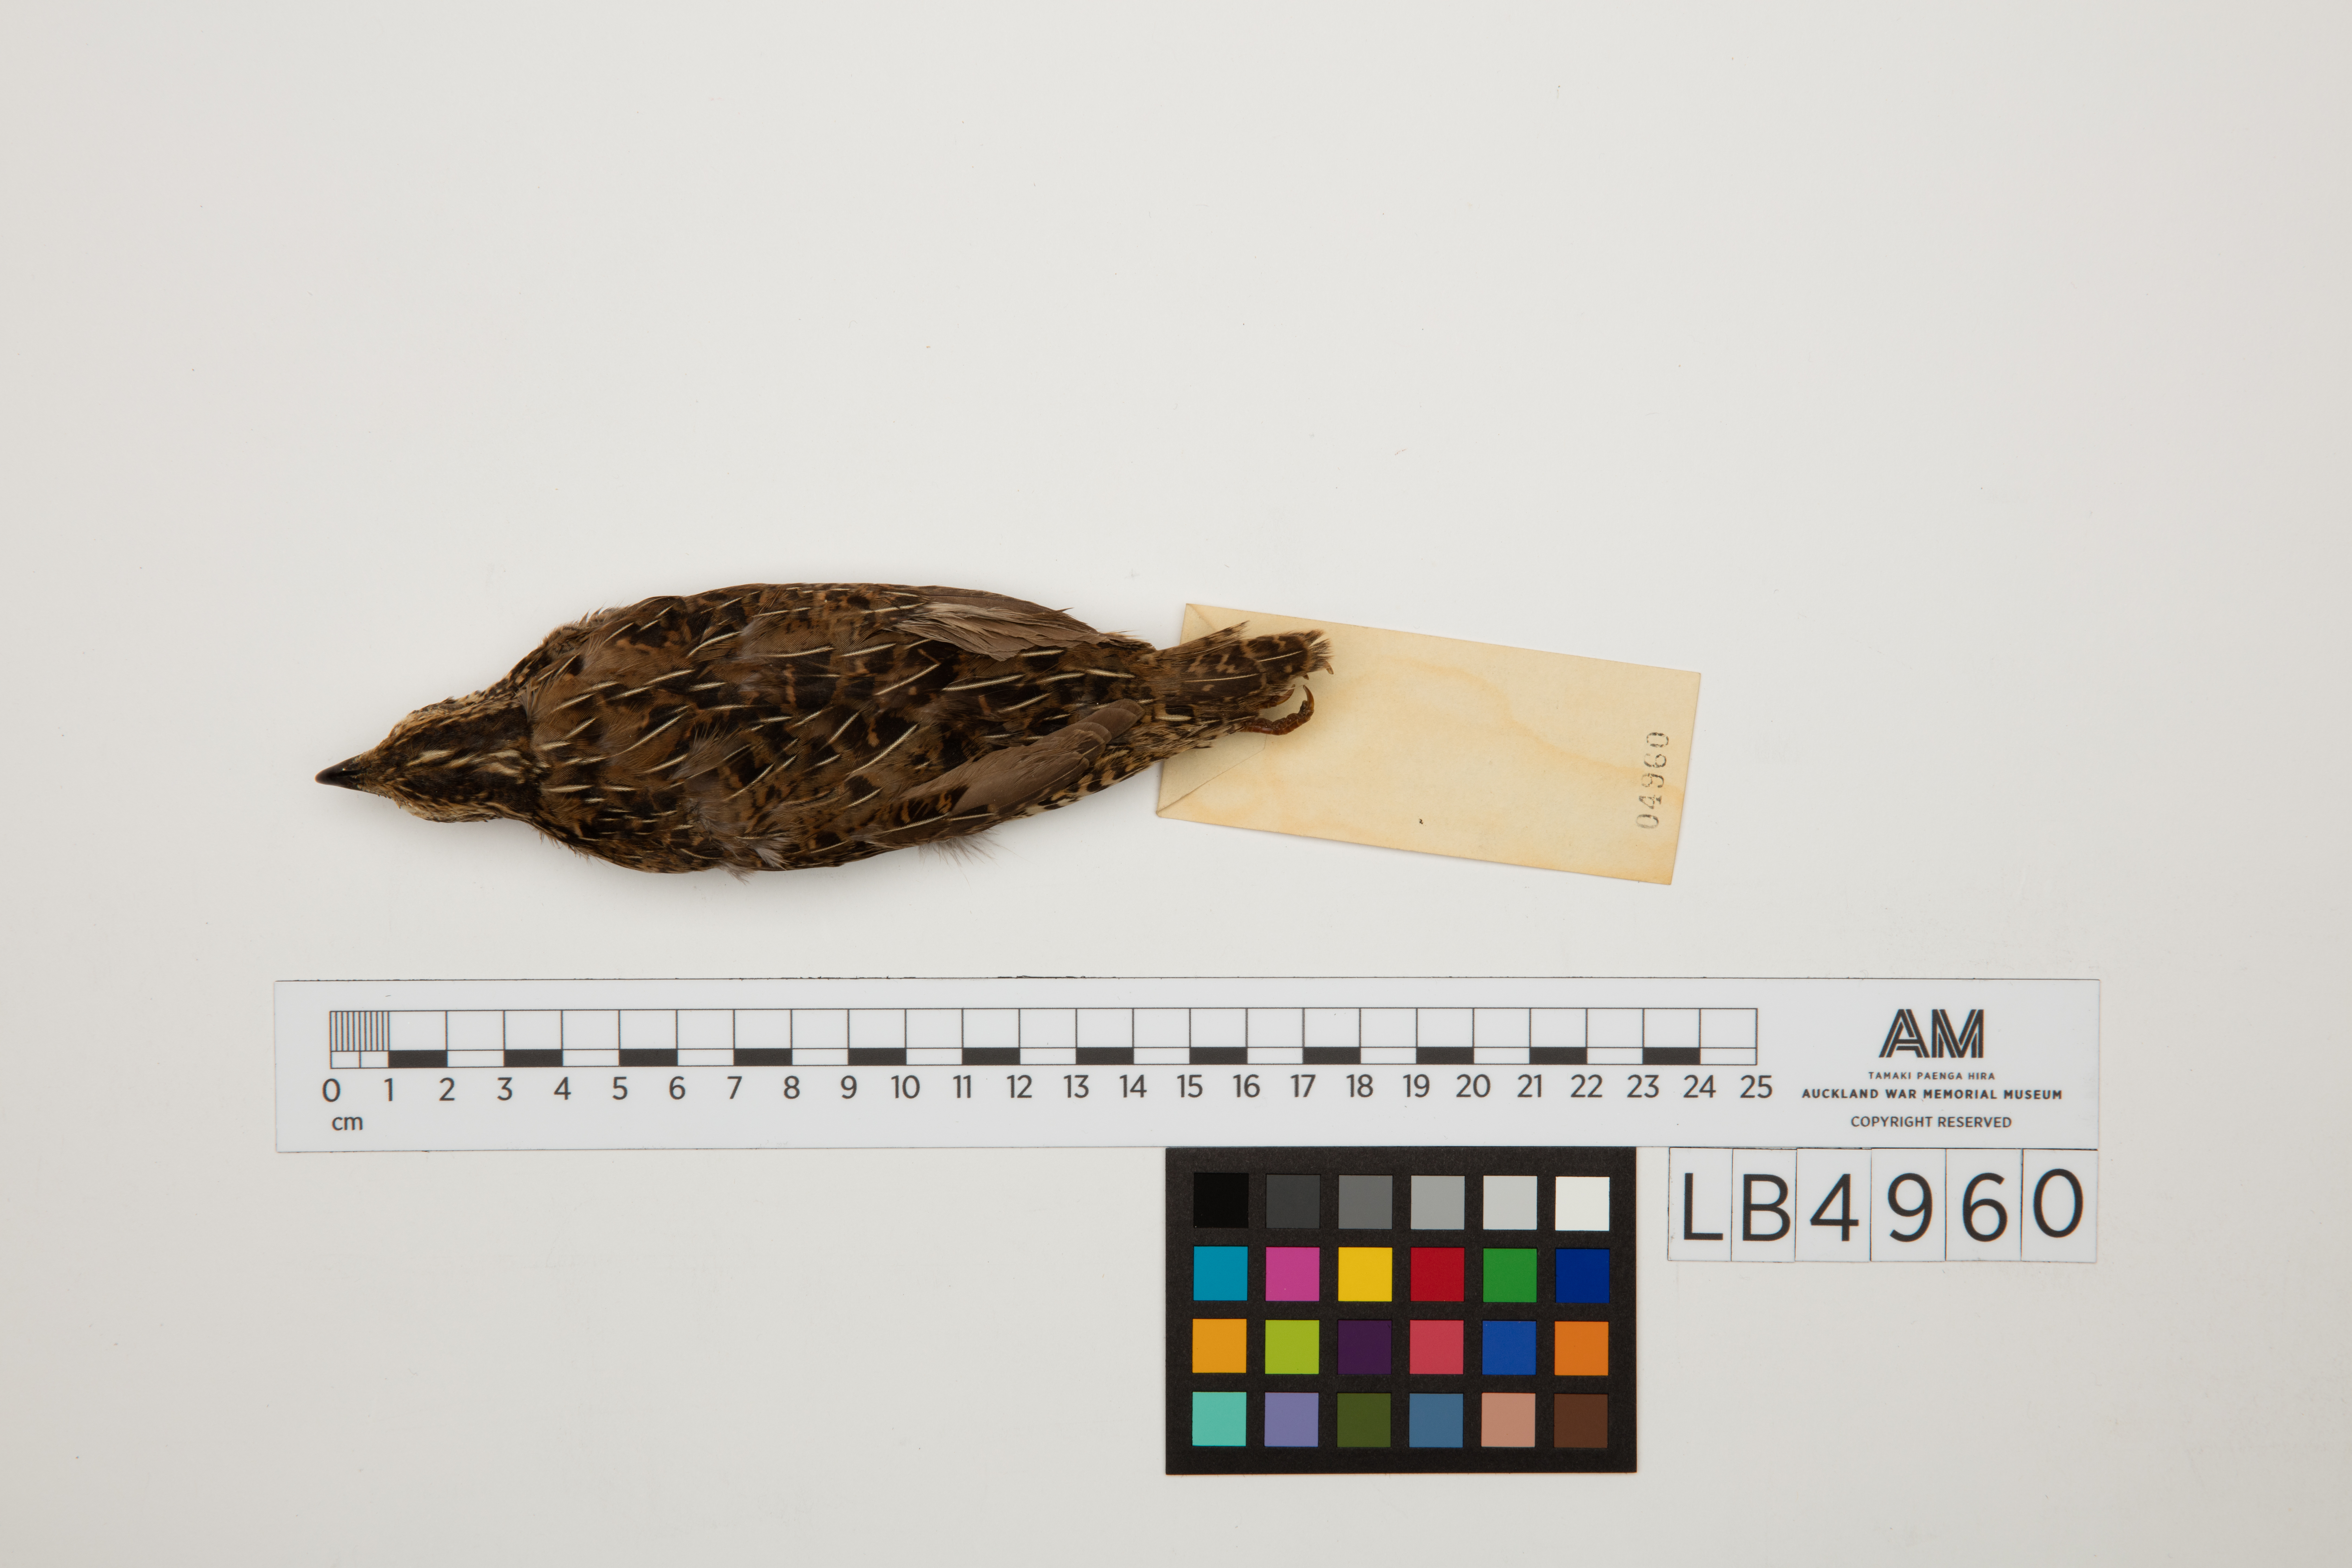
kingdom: Animalia
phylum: Chordata
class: Aves
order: Galliformes
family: Phasianidae
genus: Synoicus
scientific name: Synoicus ypsilophorus
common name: Brown quail
